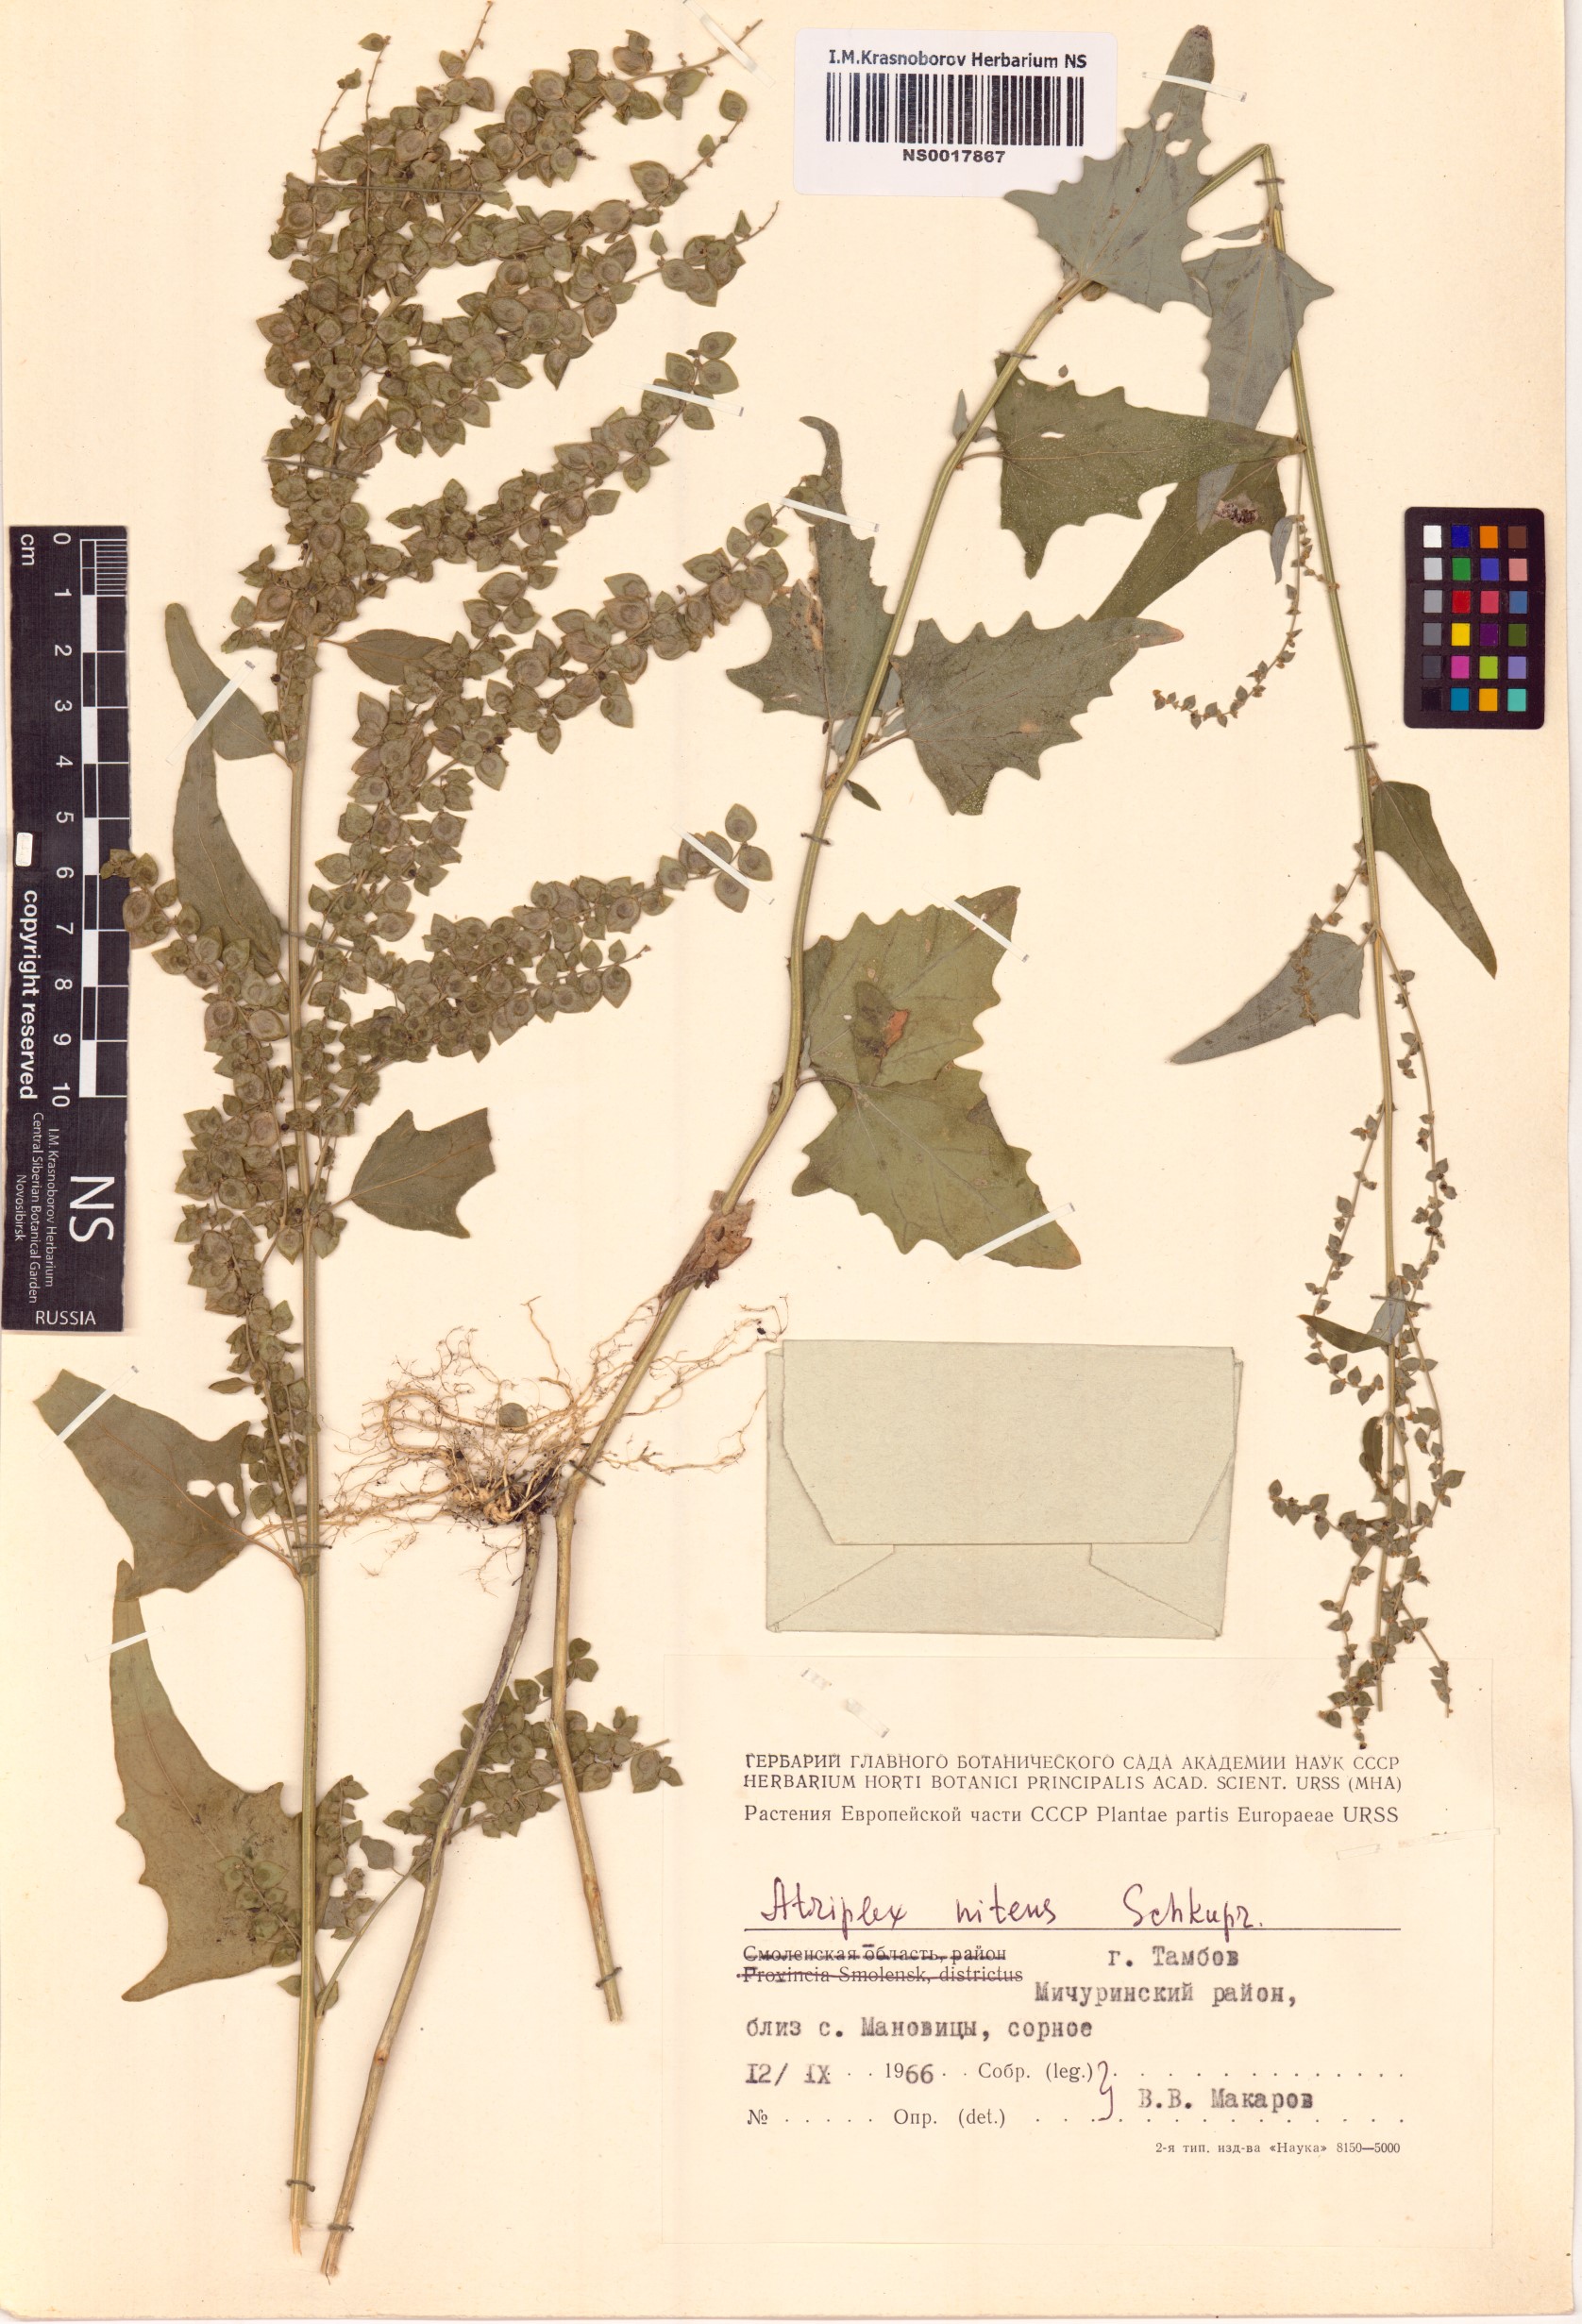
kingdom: Plantae
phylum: Tracheophyta
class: Magnoliopsida
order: Caryophyllales
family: Amaranthaceae
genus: Atriplex
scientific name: Atriplex sagittata
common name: Purple orache
